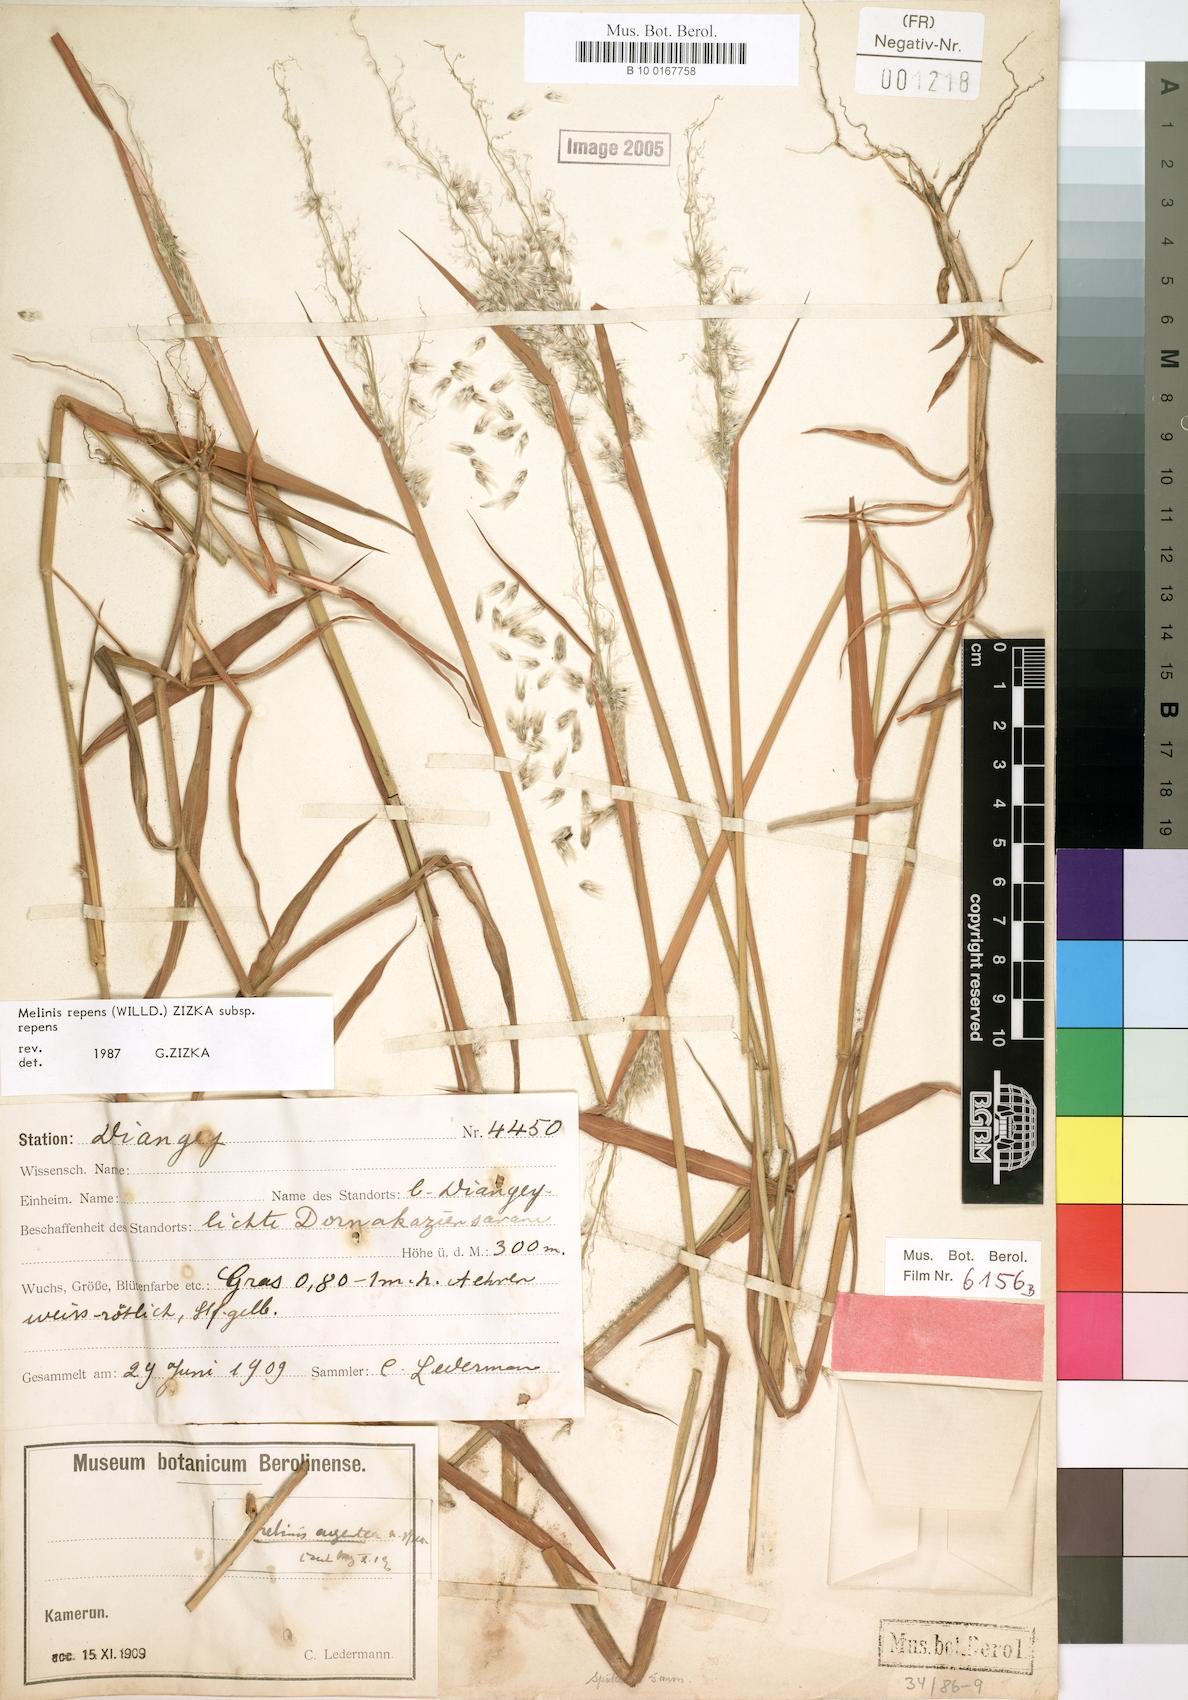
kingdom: Plantae
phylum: Tracheophyta
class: Liliopsida
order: Poales
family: Poaceae
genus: Melinis
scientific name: Melinis repens
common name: Rose natal grass
